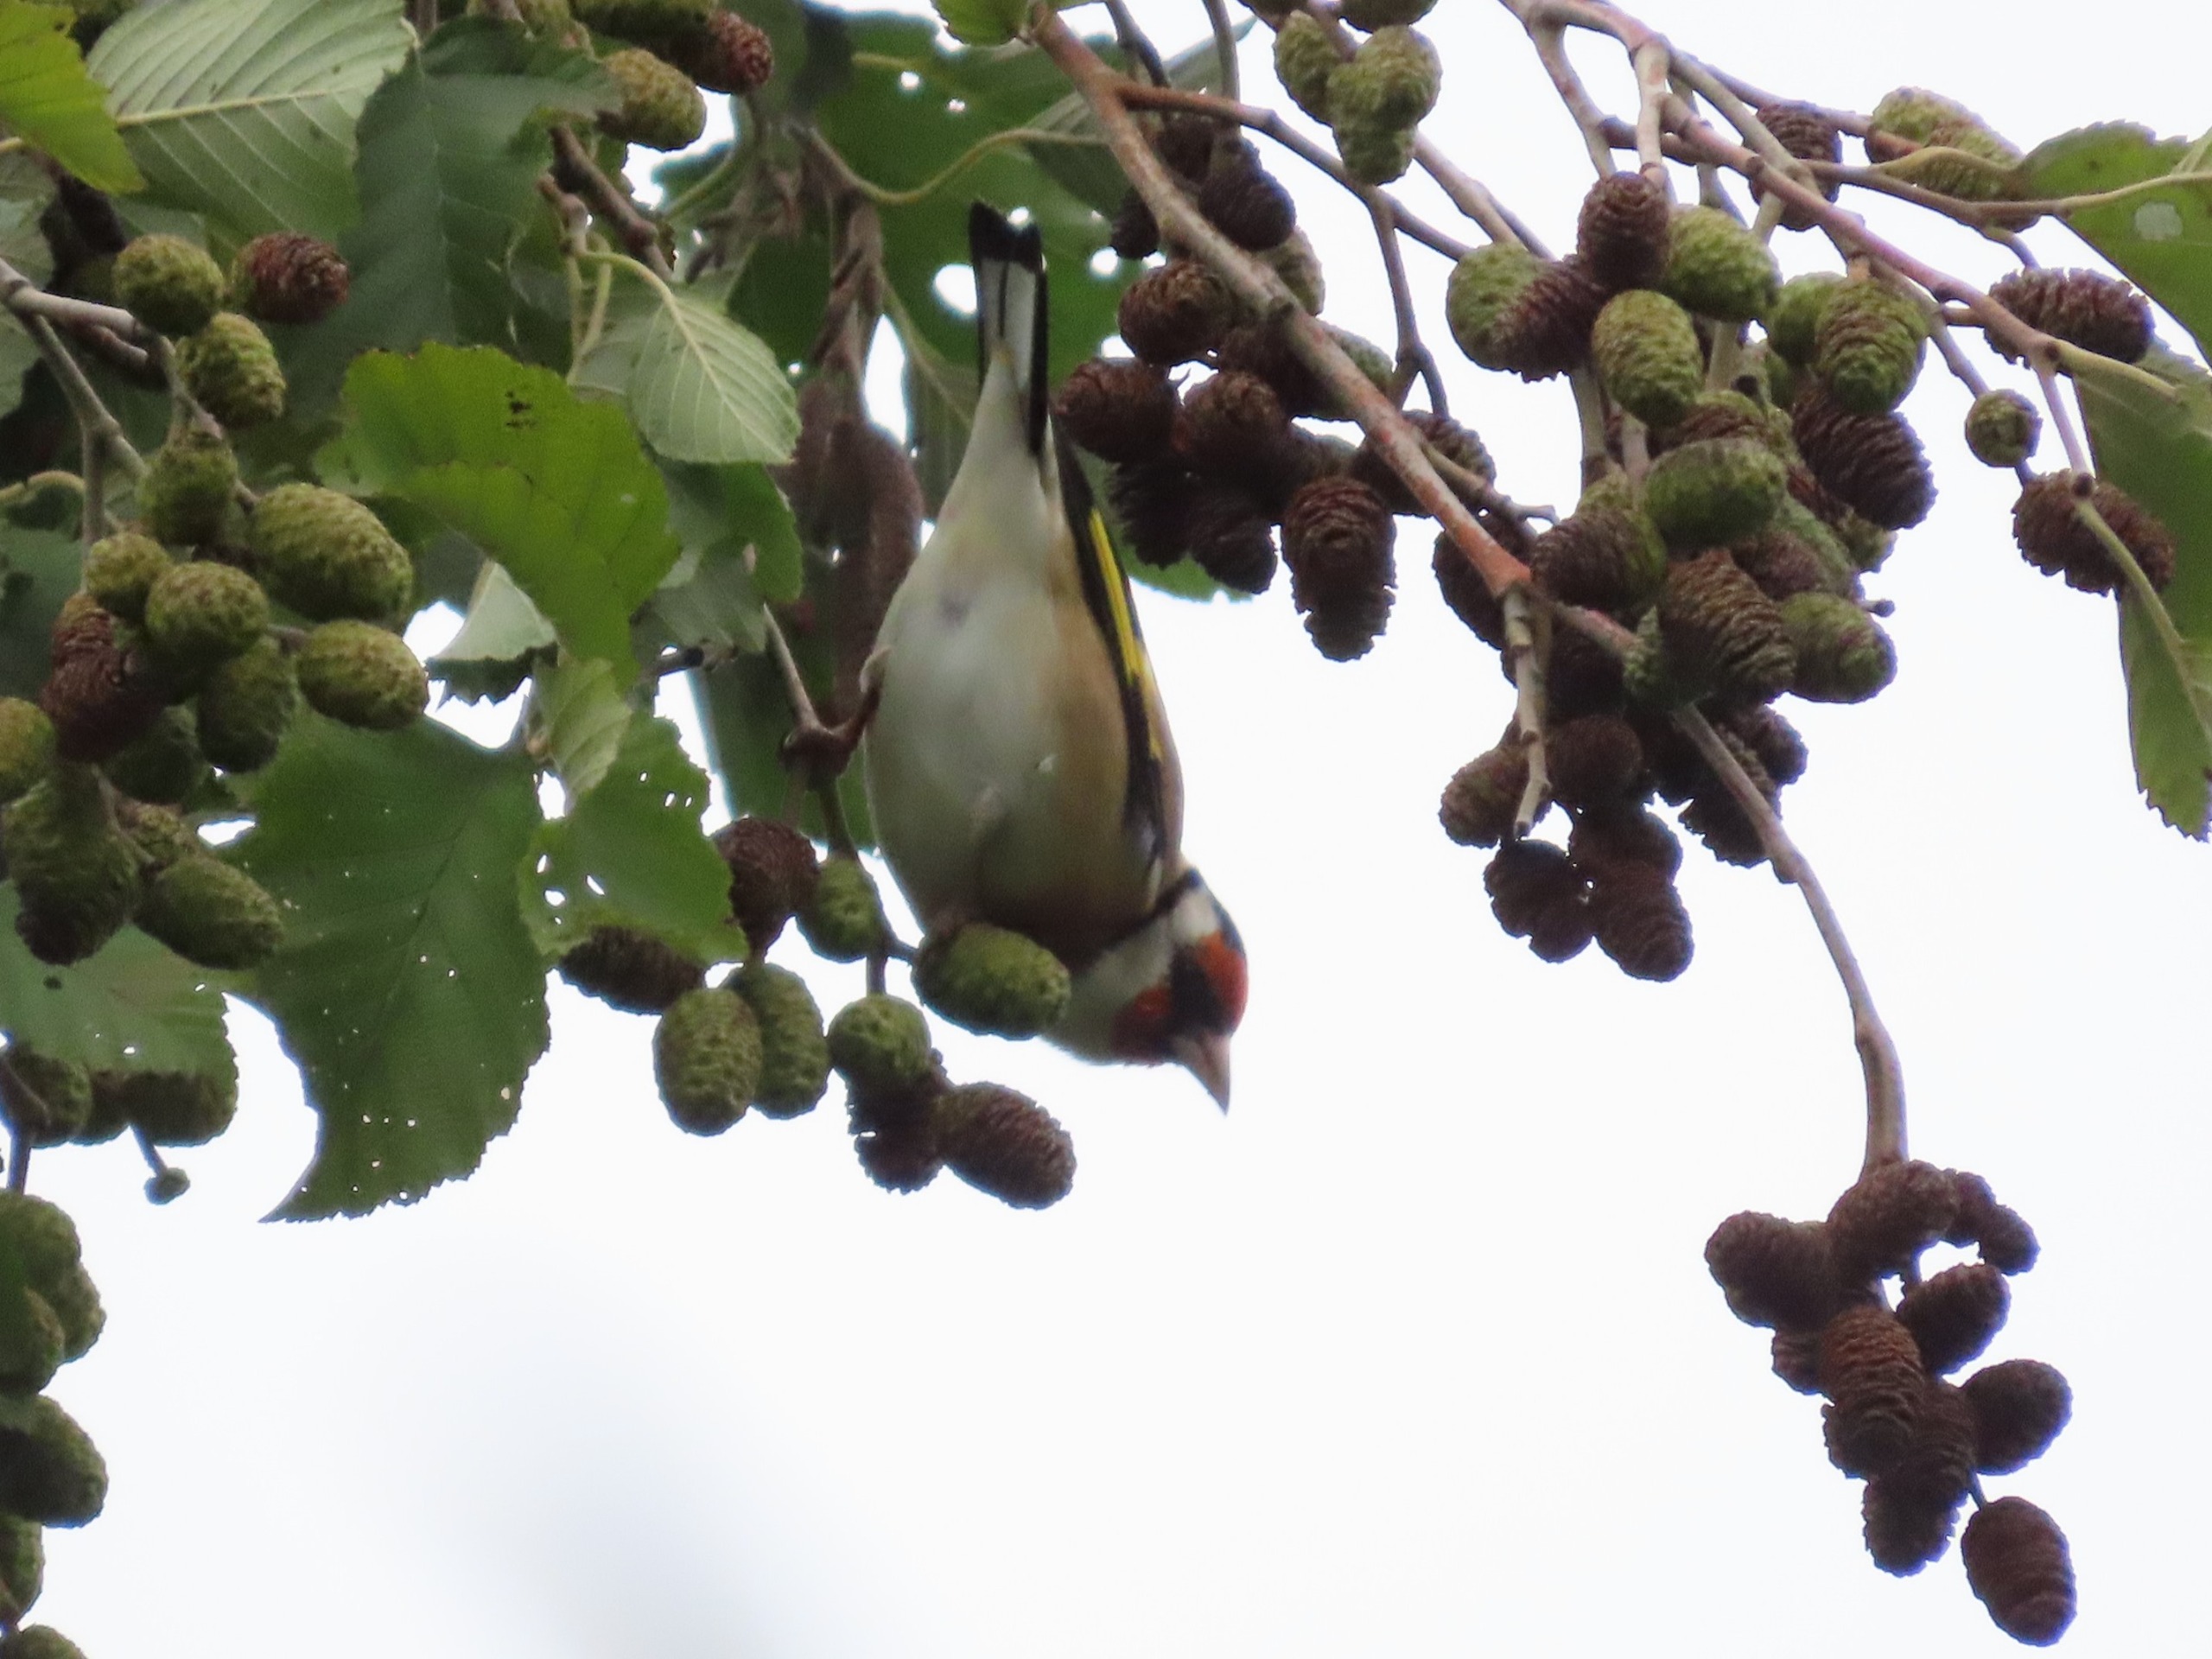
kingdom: Animalia
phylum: Chordata
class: Aves
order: Passeriformes
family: Fringillidae
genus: Carduelis
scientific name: Carduelis carduelis
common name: Stillits
